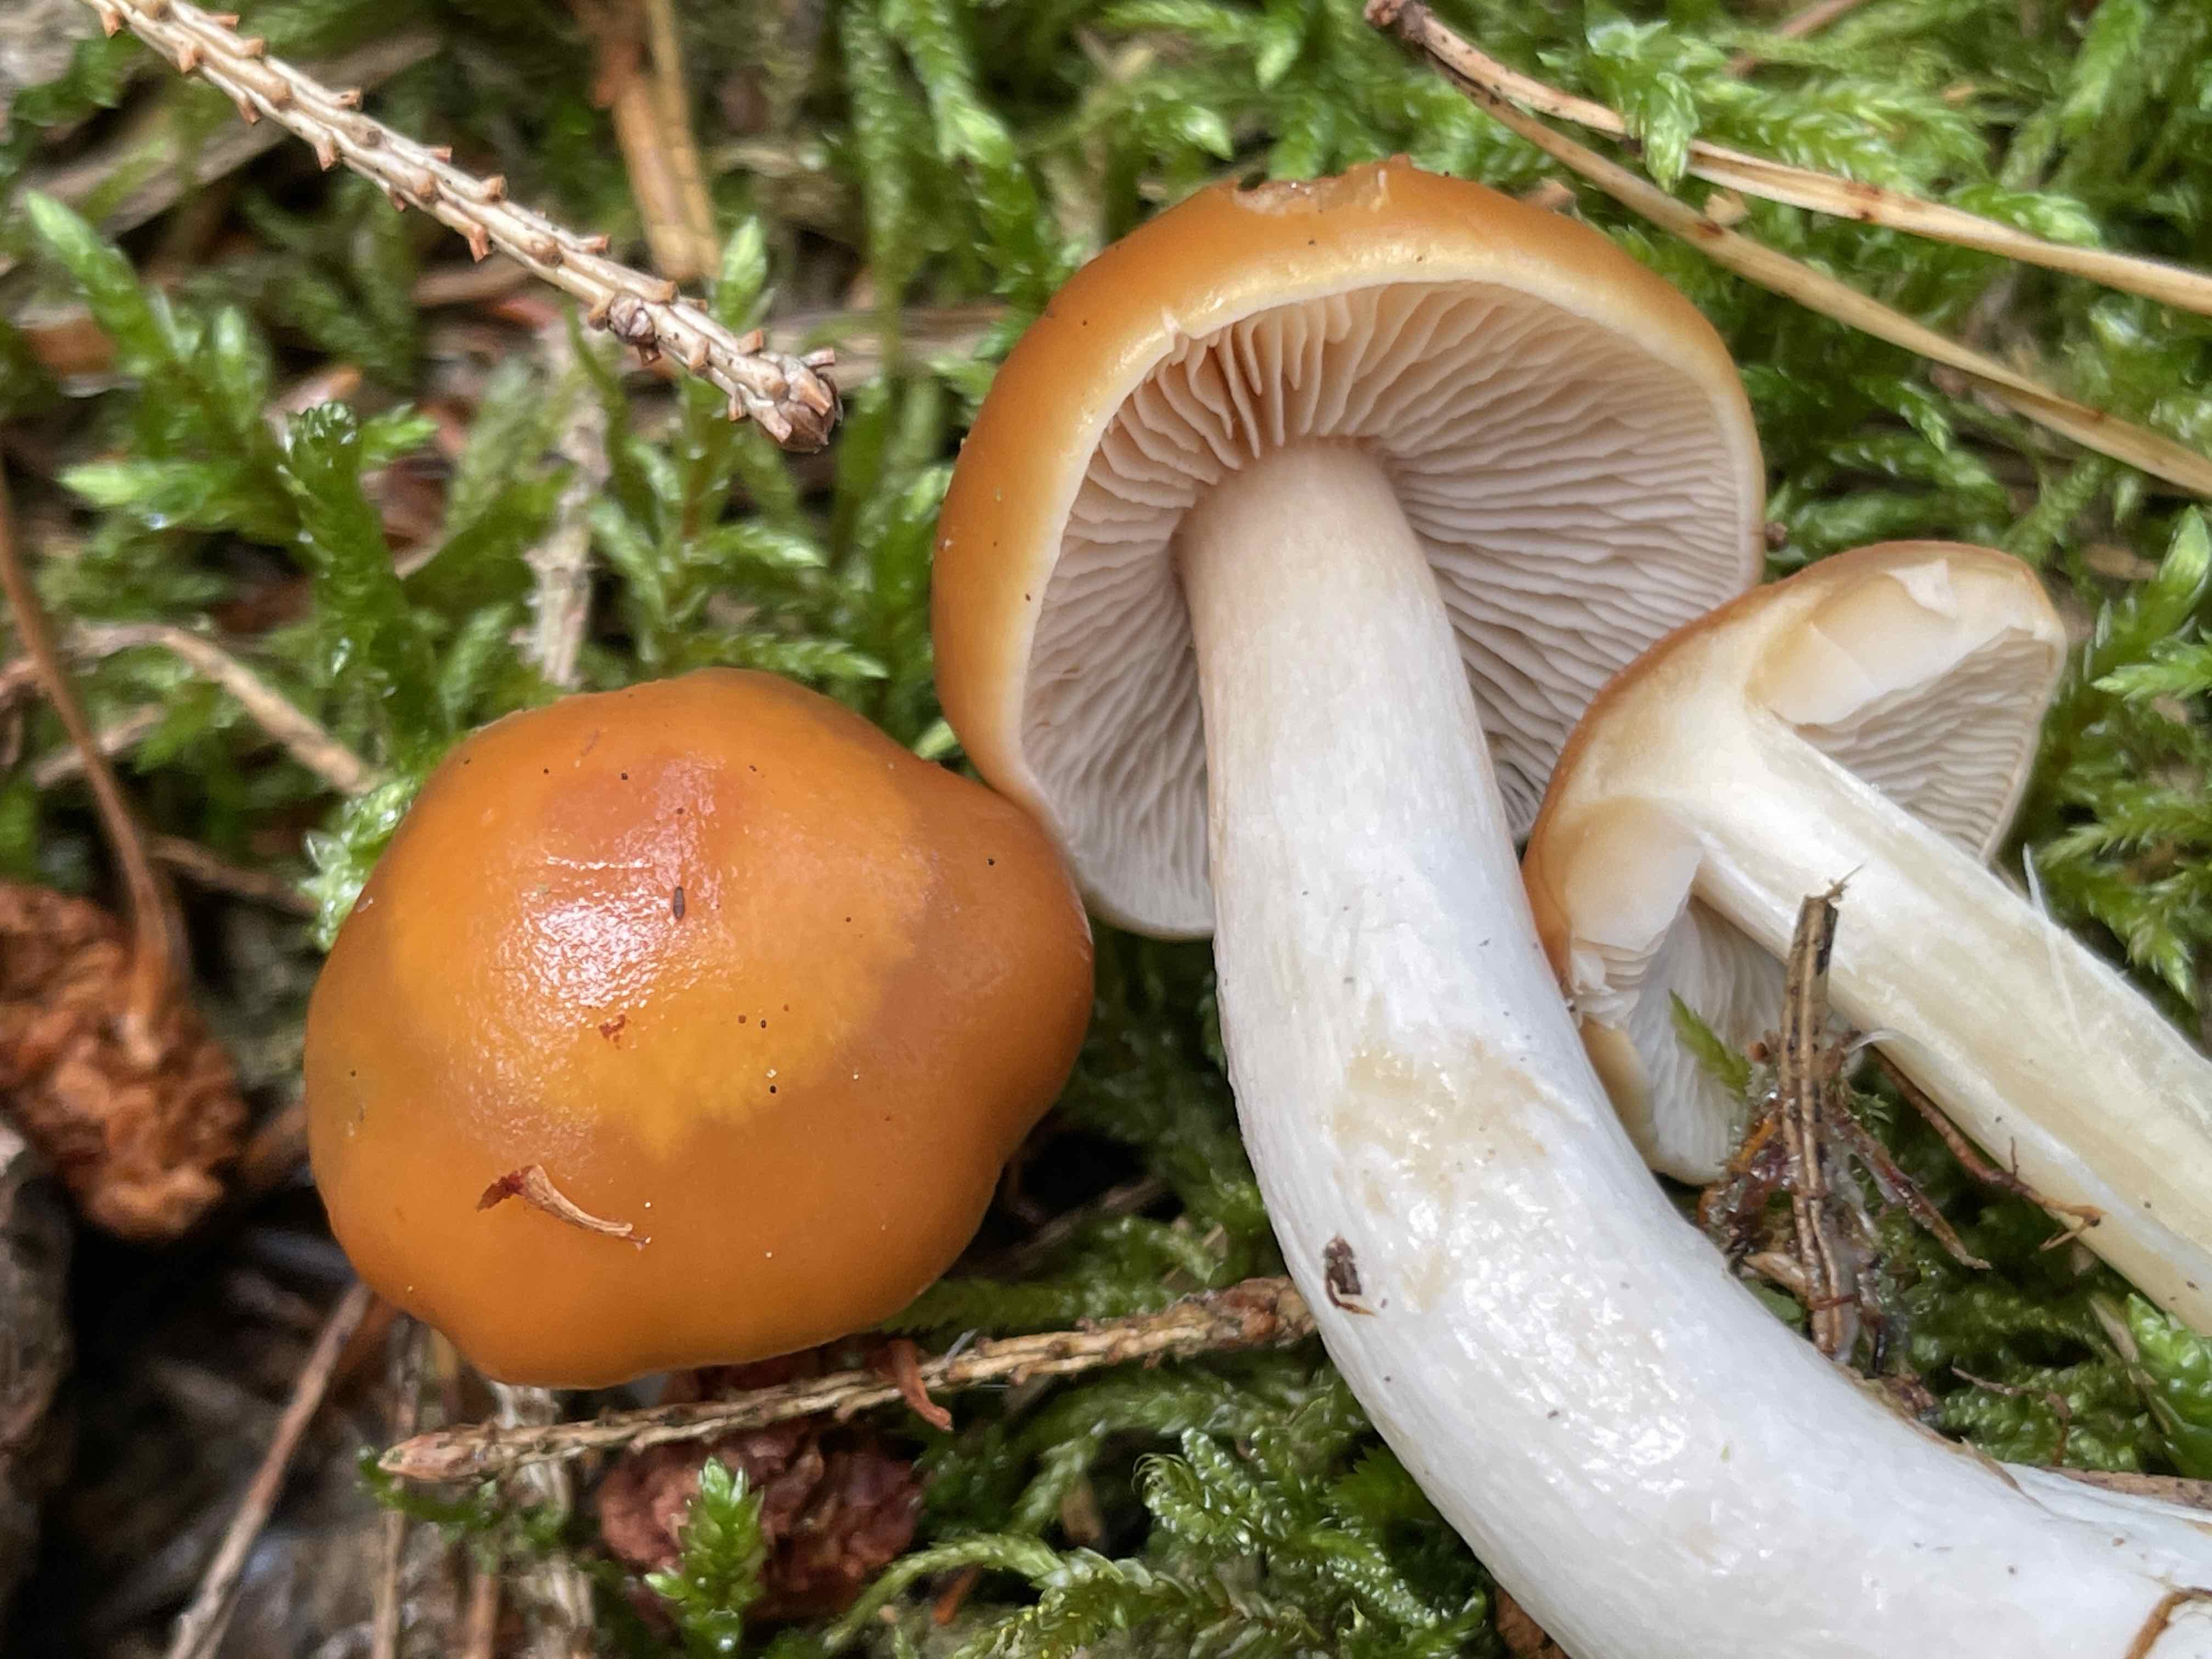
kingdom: Fungi
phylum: Basidiomycota
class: Agaricomycetes
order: Agaricales
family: Cortinariaceae
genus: Thaxterogaster
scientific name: Thaxterogaster causticus
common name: peber-slørhat
